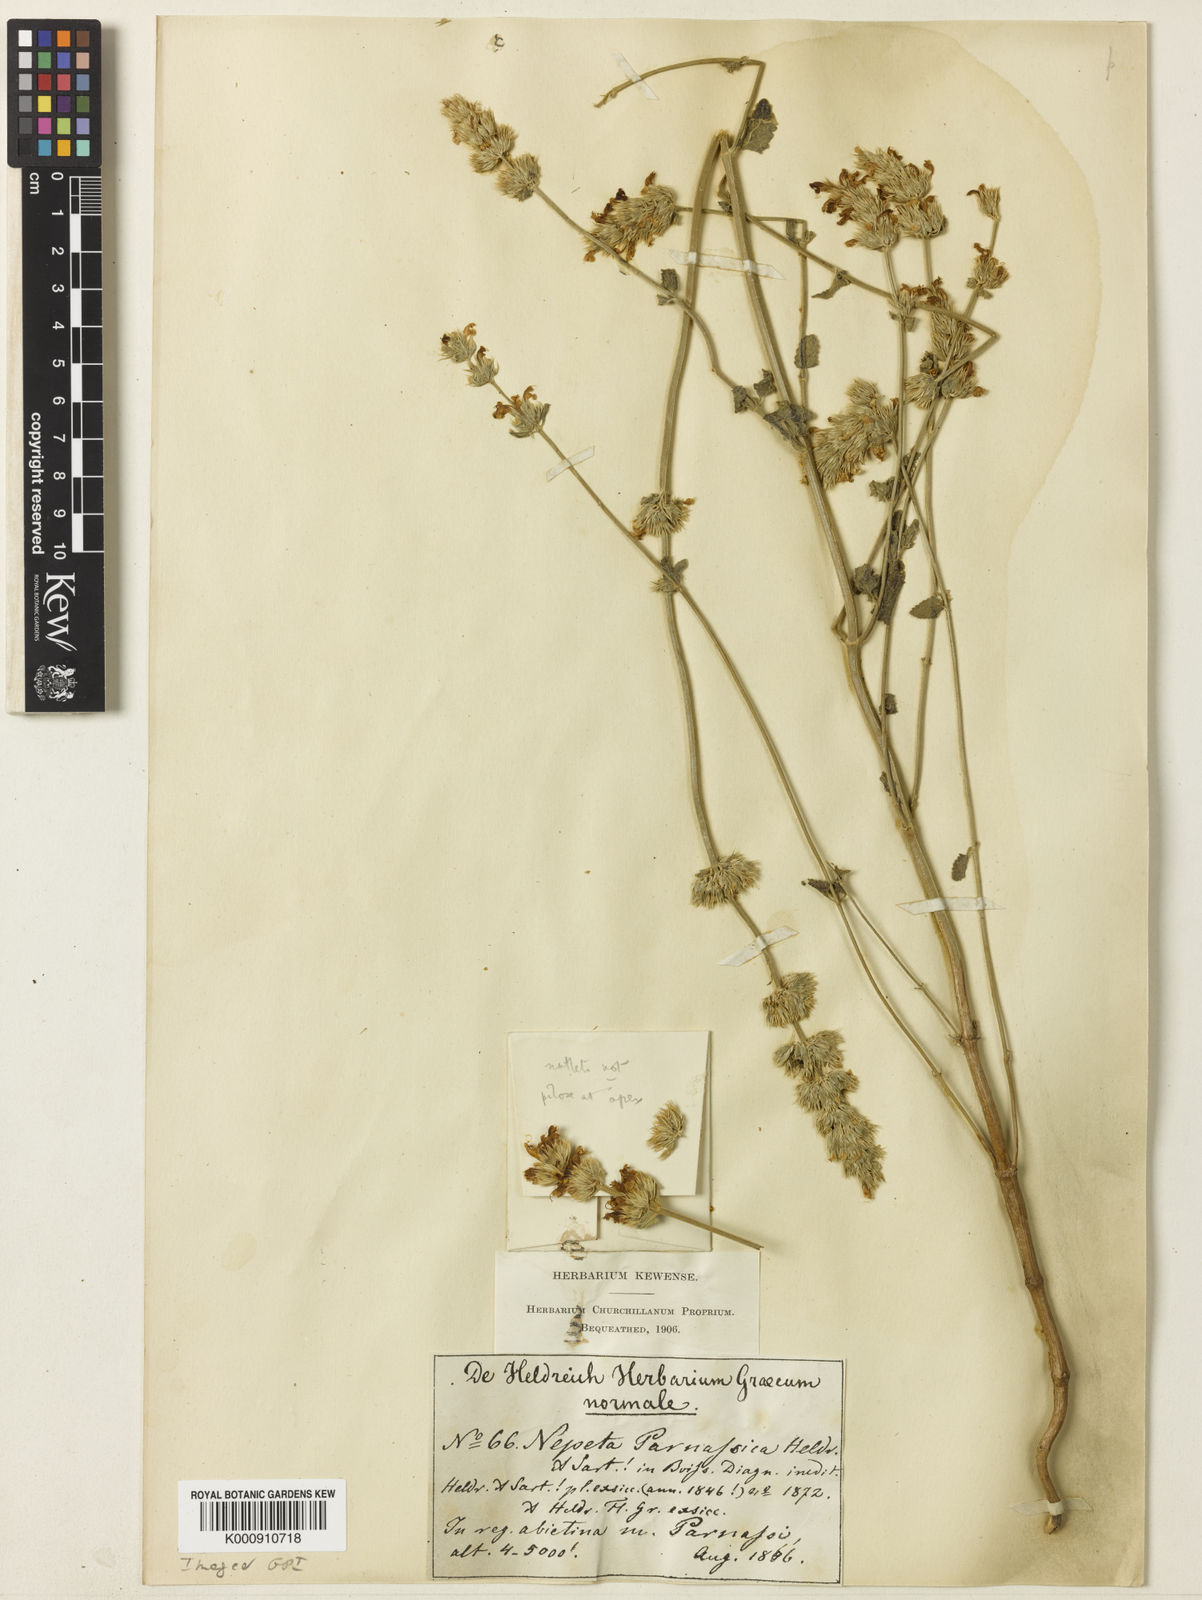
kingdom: Plantae
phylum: Tracheophyta
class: Magnoliopsida
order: Lamiales
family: Lamiaceae
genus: Nepeta
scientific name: Nepeta parnassica
